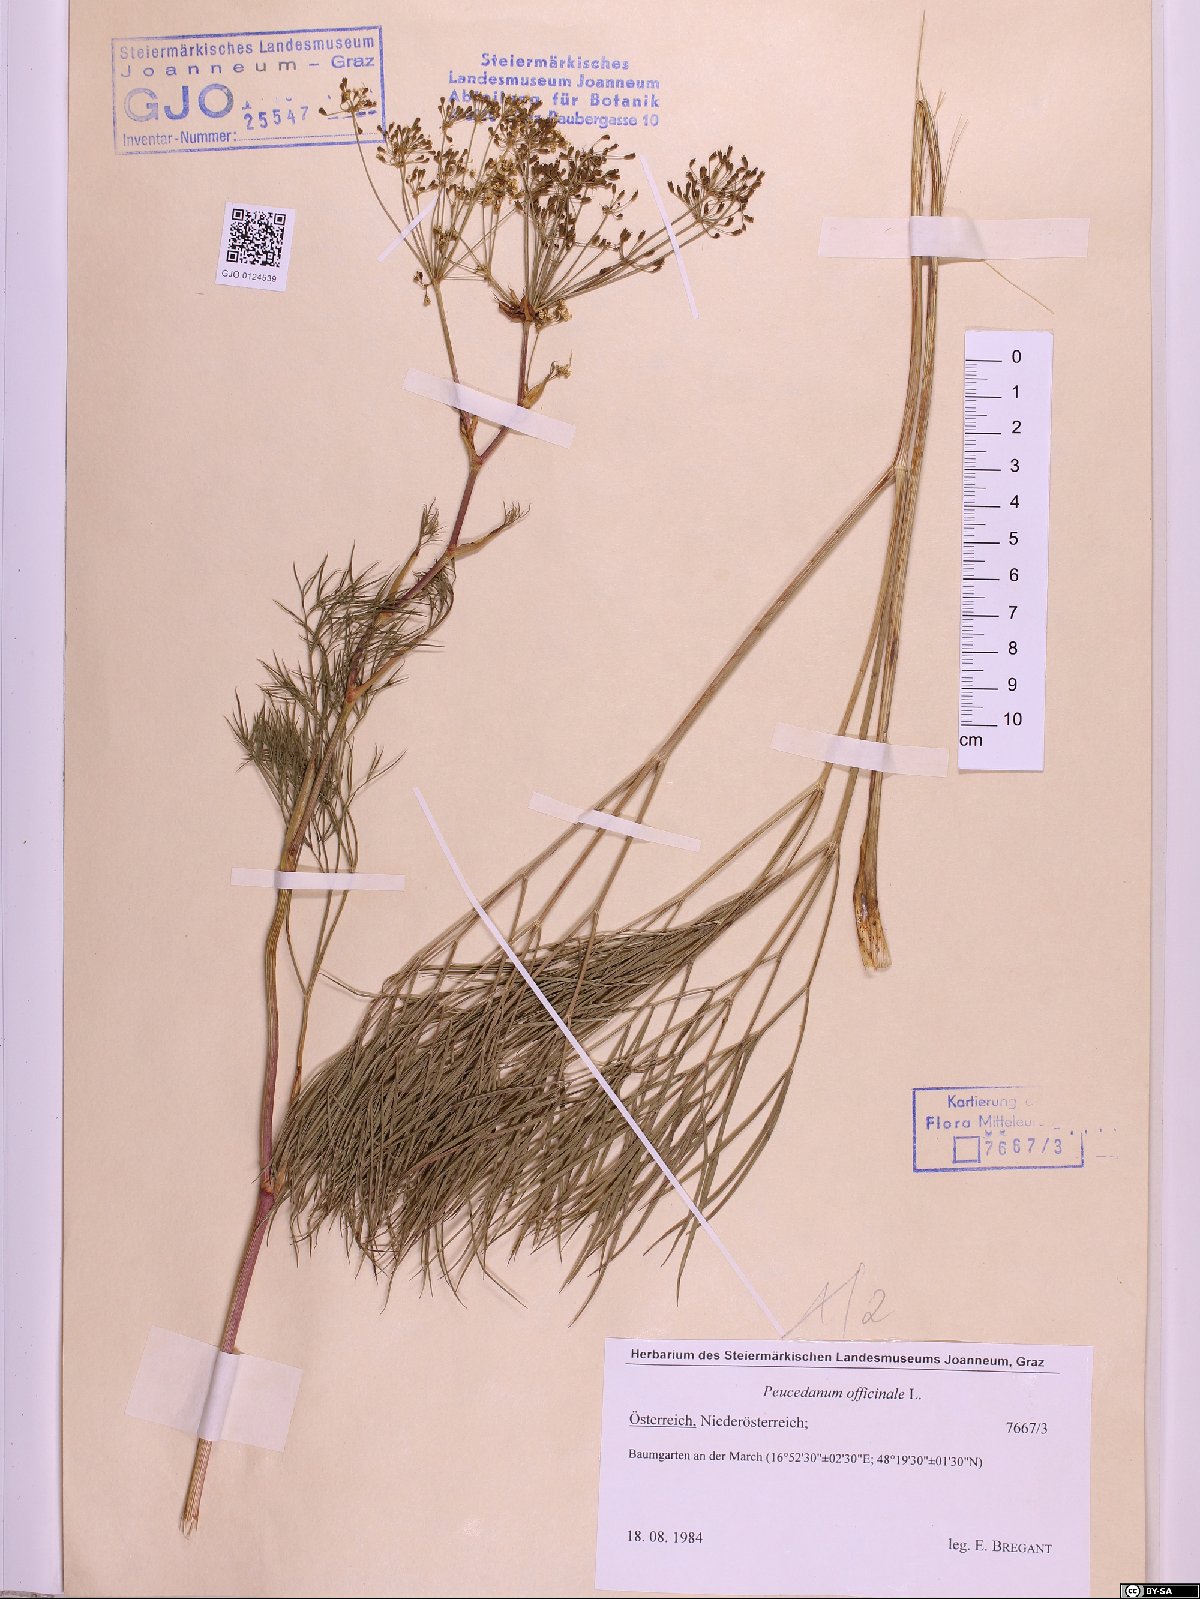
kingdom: Plantae
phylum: Tracheophyta
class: Magnoliopsida
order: Apiales
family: Apiaceae
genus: Peucedanum
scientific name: Peucedanum officinale
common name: Sulphurweed
